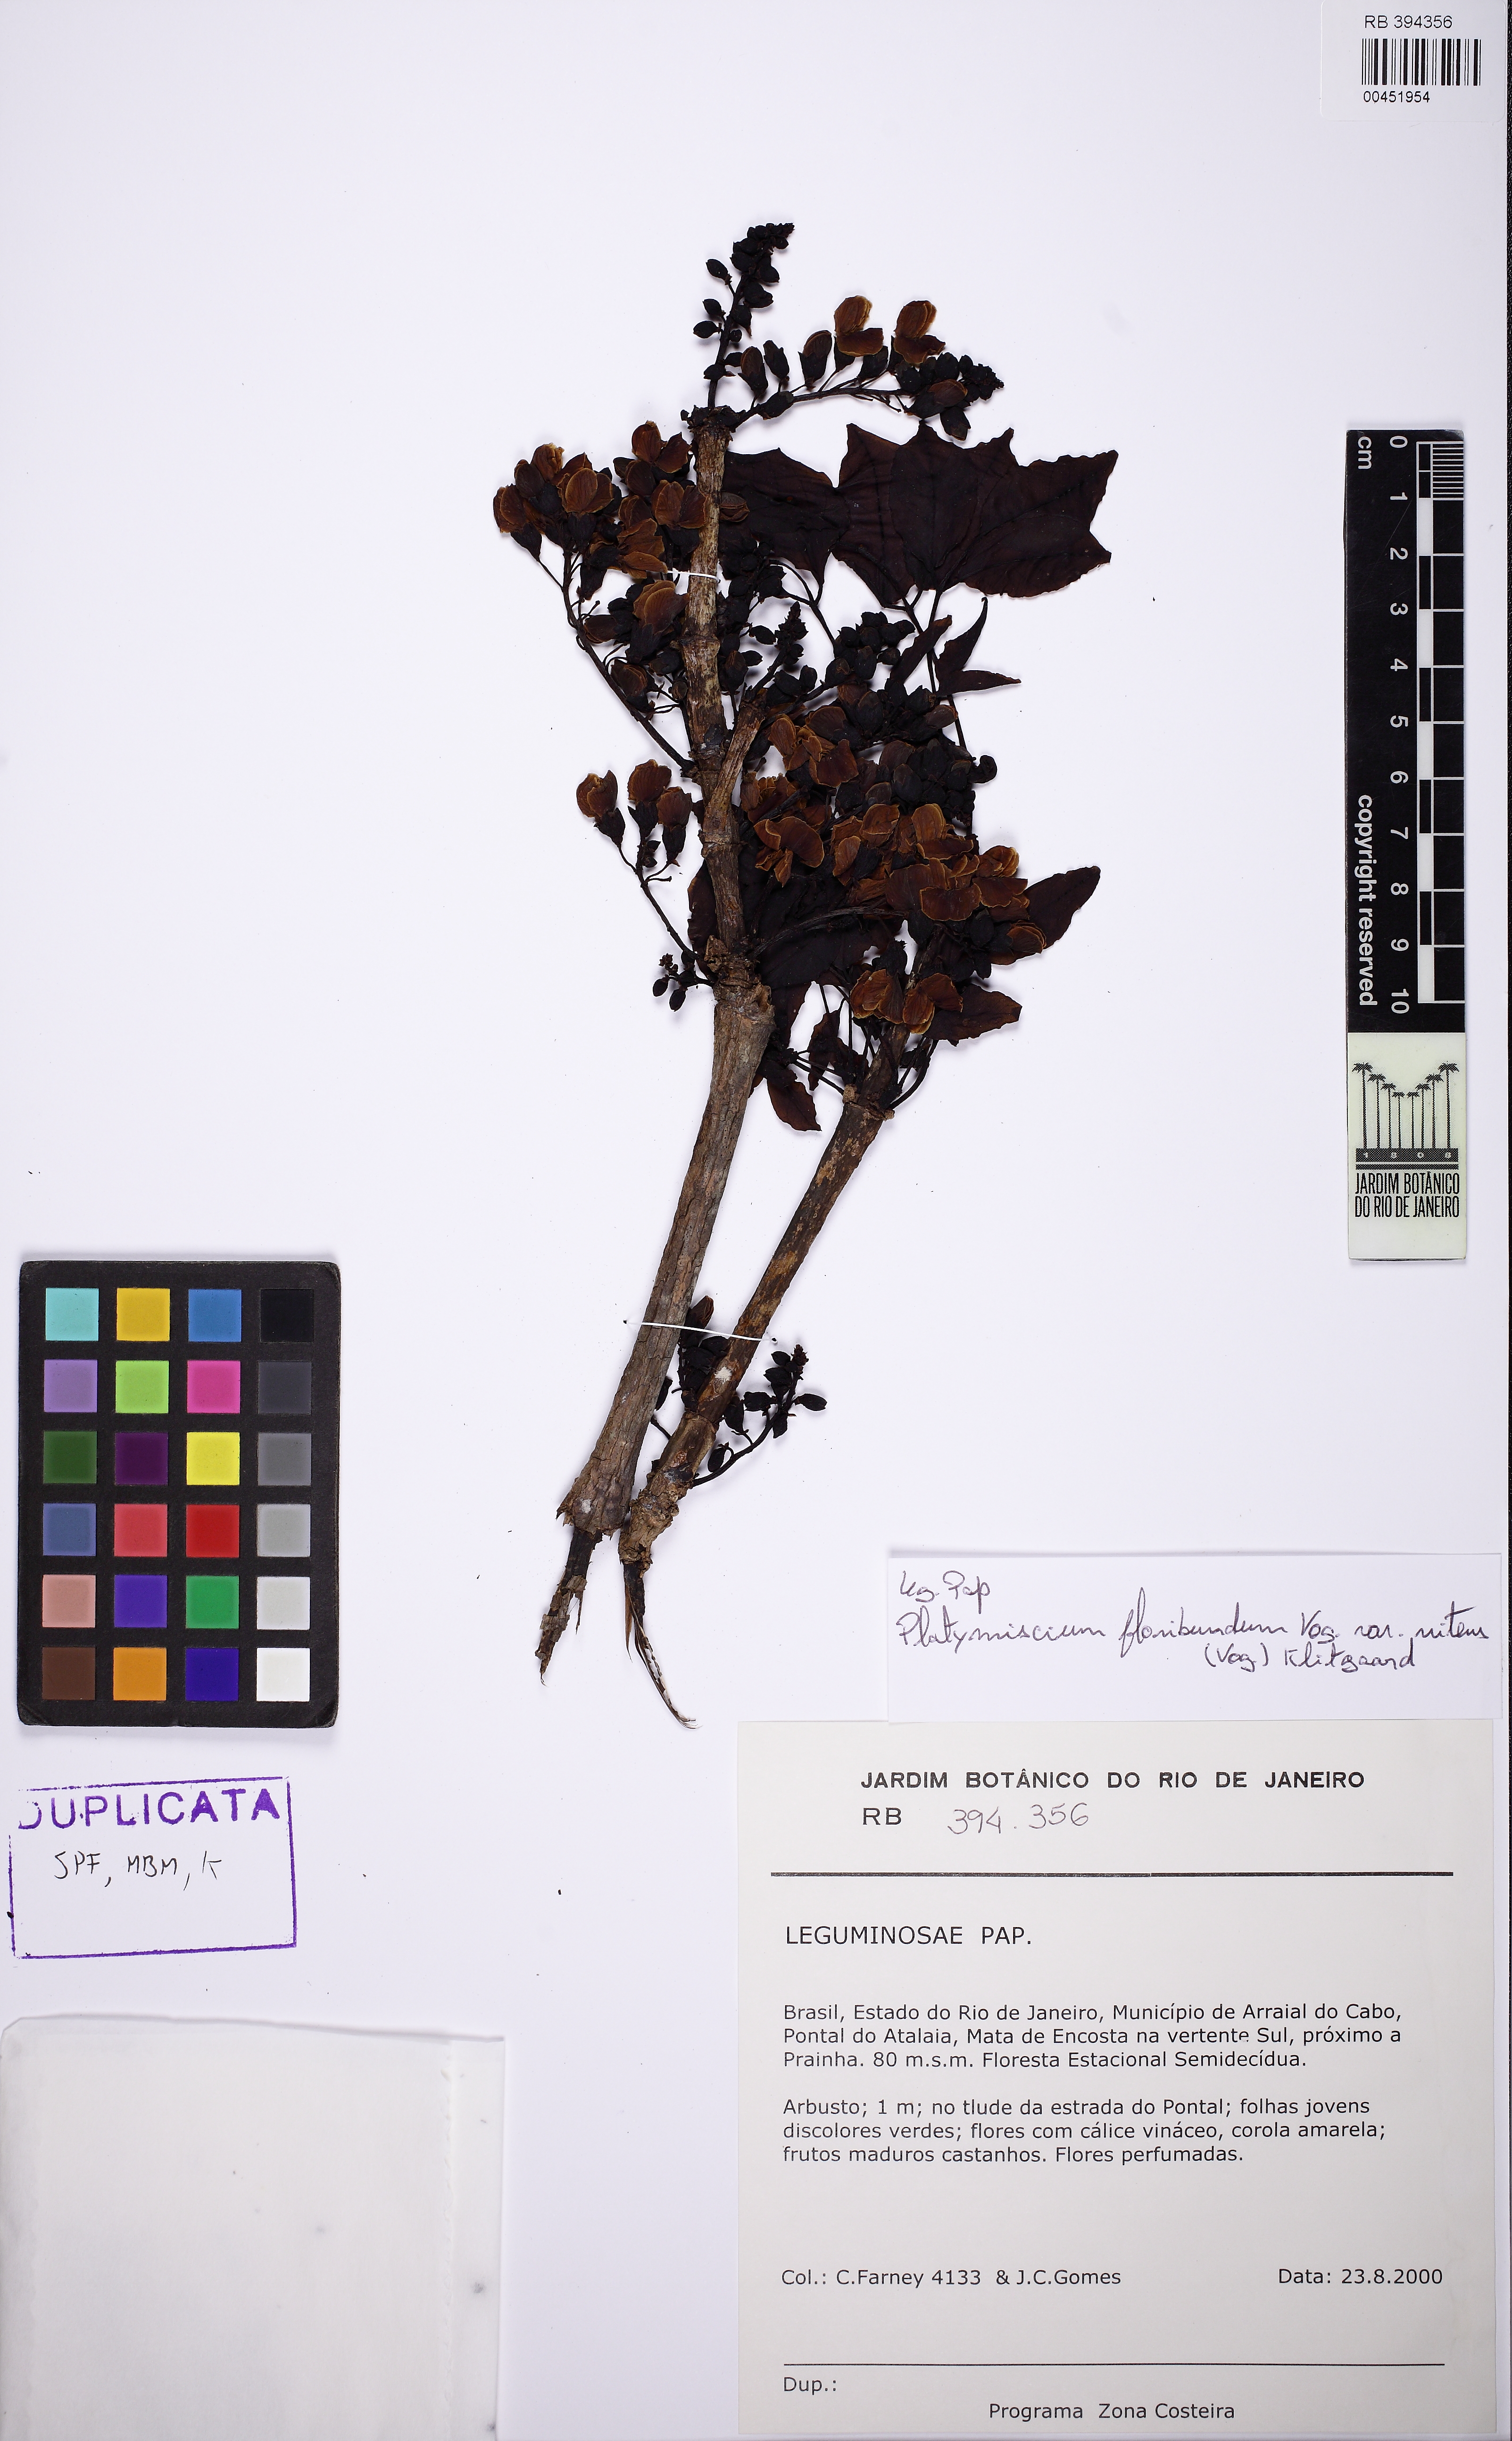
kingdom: Plantae
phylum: Tracheophyta
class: Magnoliopsida
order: Fabales
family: Fabaceae
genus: Platymiscium
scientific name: Platymiscium floribundum
